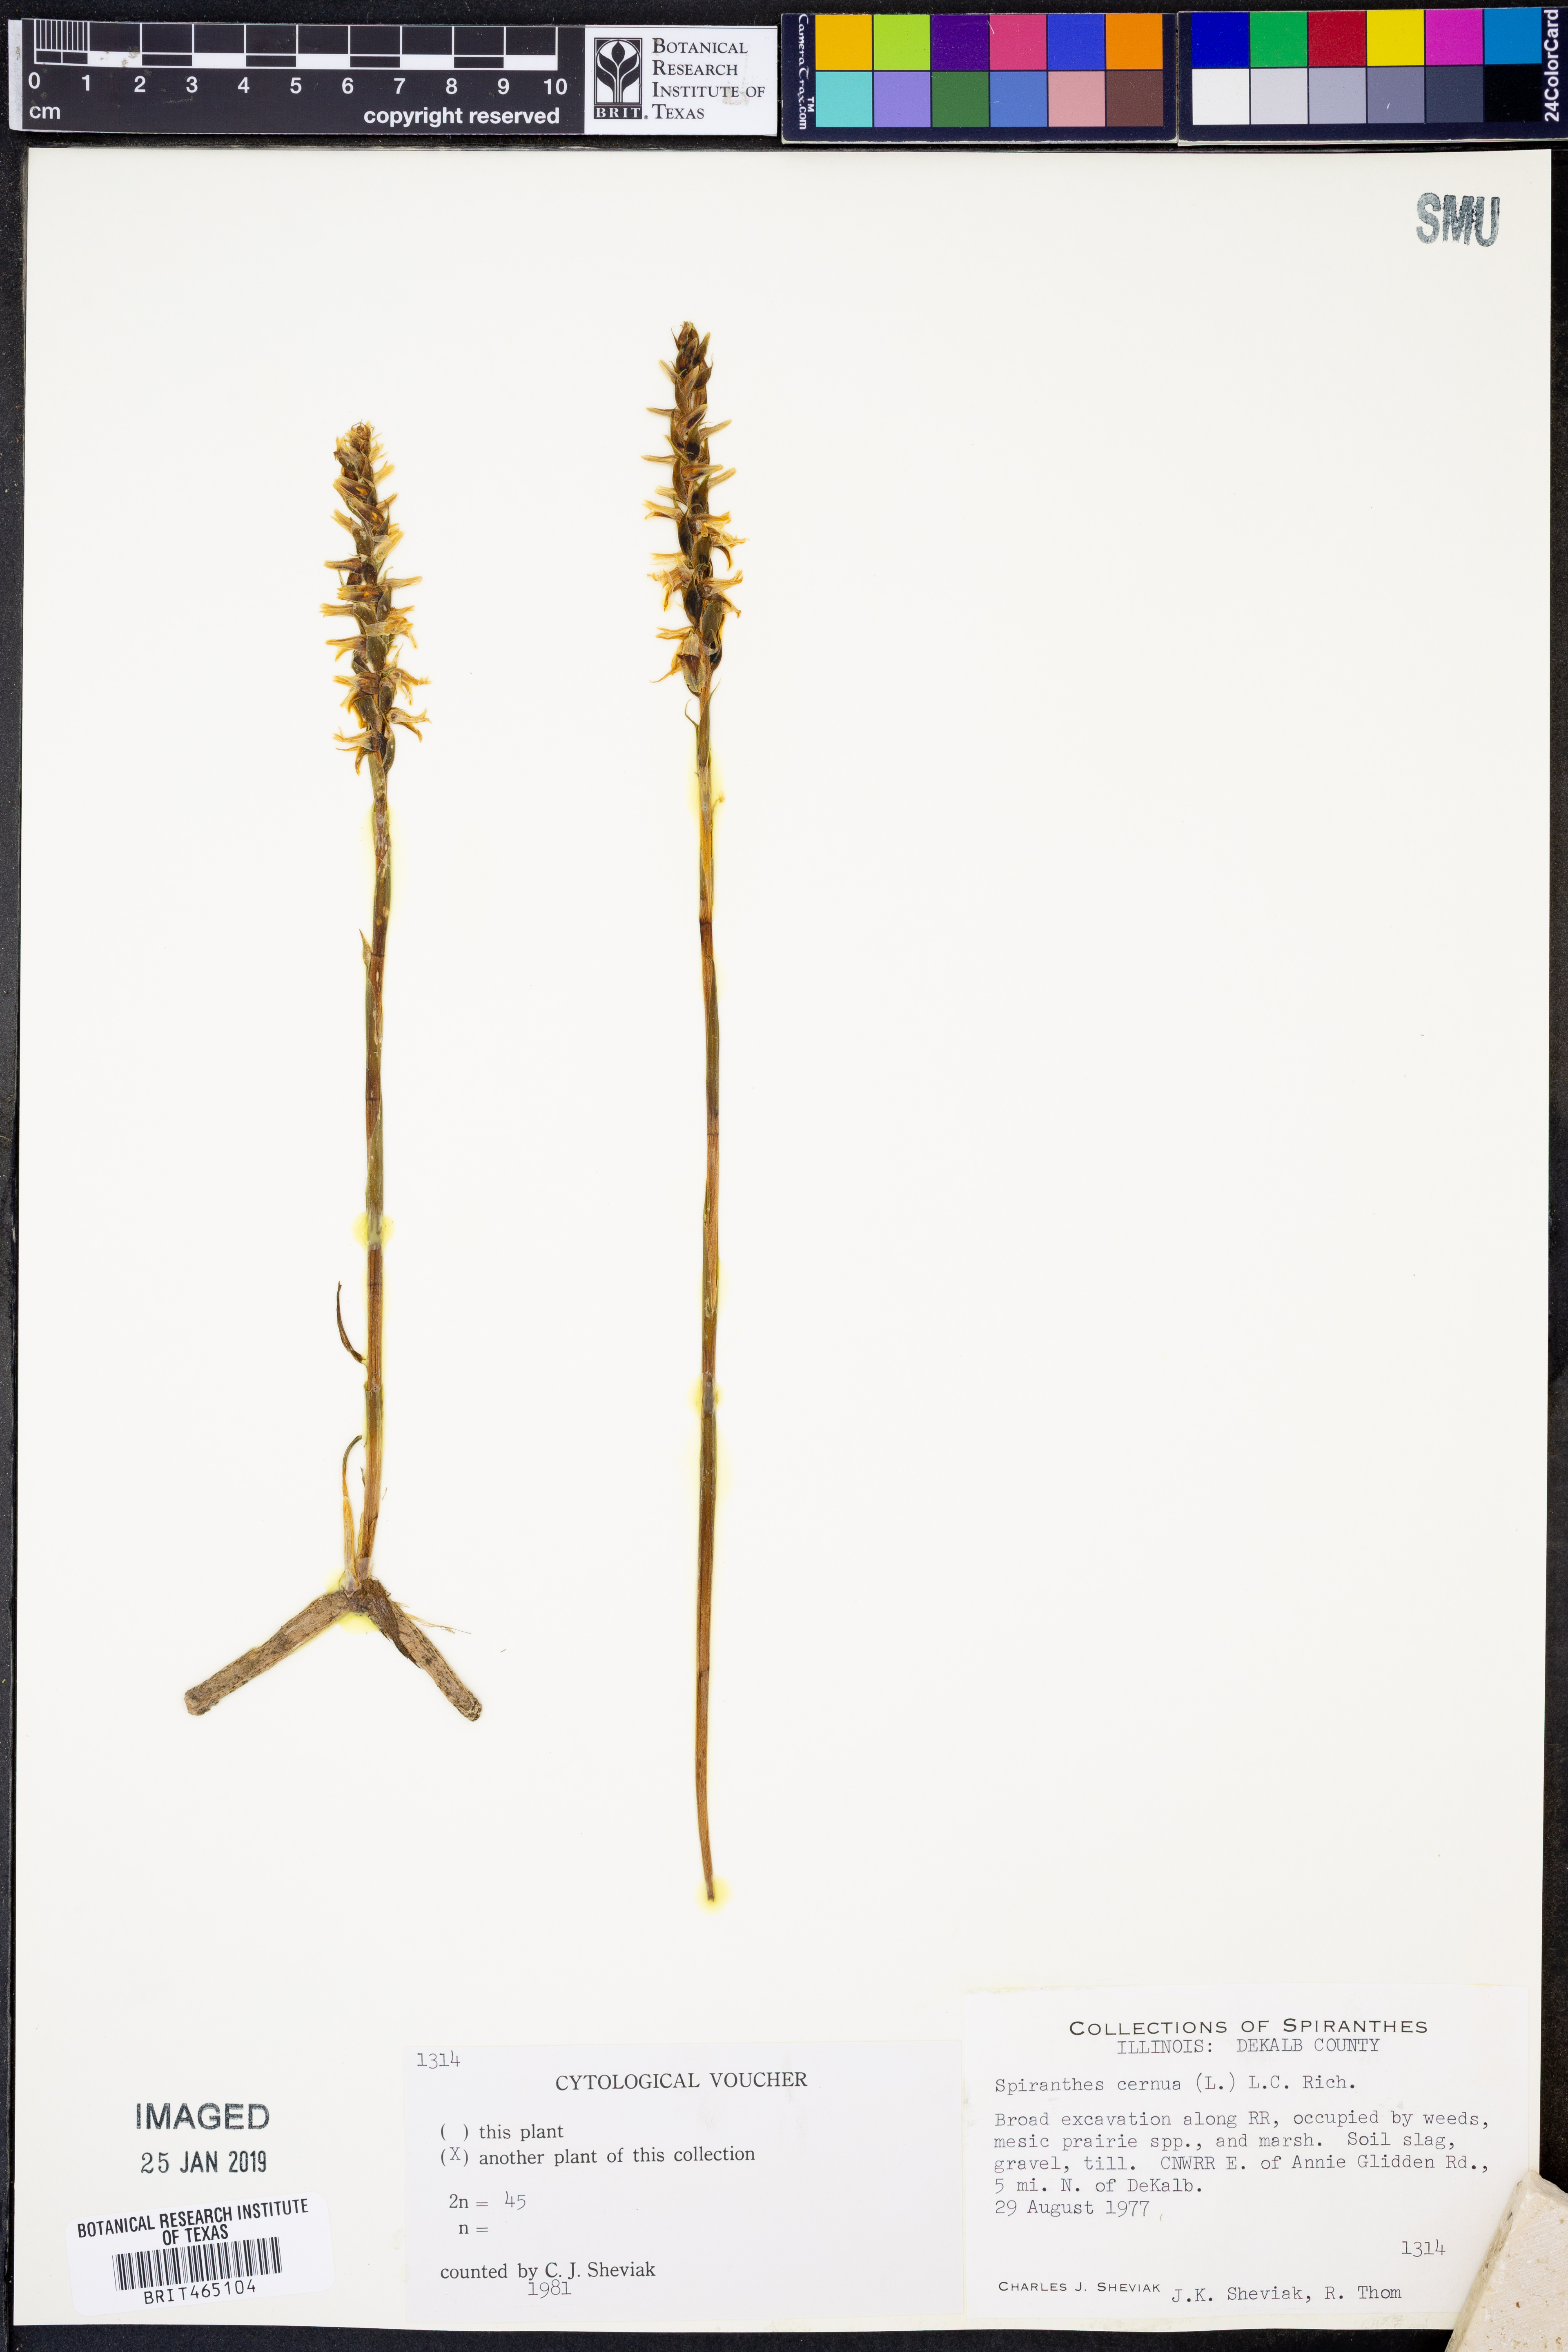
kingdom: Plantae
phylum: Tracheophyta
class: Liliopsida
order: Asparagales
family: Orchidaceae
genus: Spiranthes
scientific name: Spiranthes cernua
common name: Dropping ladies'-tresses
